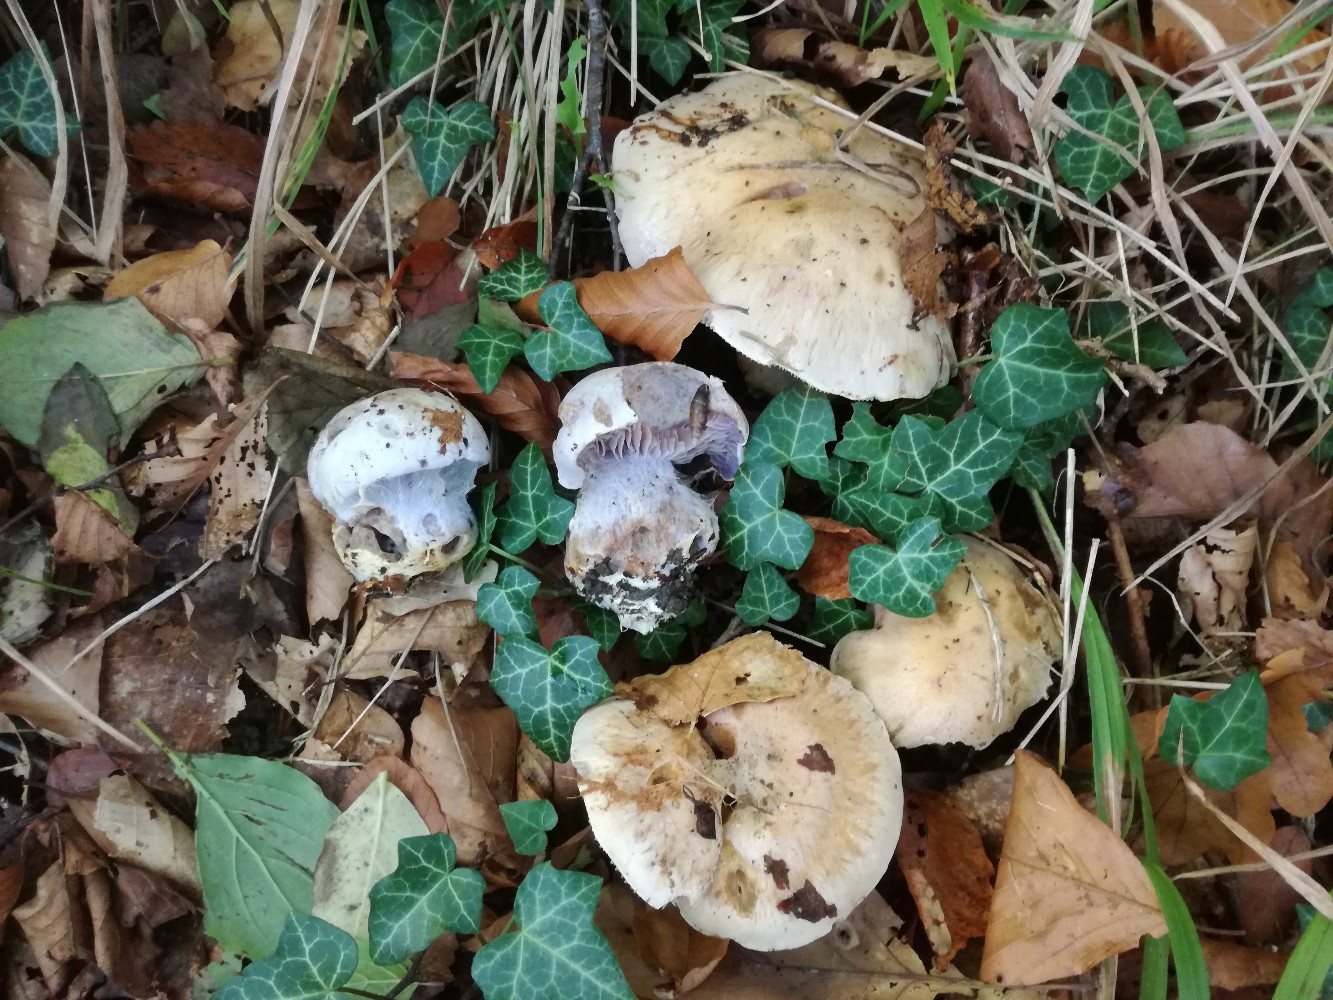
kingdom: Fungi
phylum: Basidiomycota
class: Agaricomycetes
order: Agaricales
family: Cortinariaceae
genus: Phlegmacium
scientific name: Phlegmacium coerulescentium
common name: gråbladet slørhat
